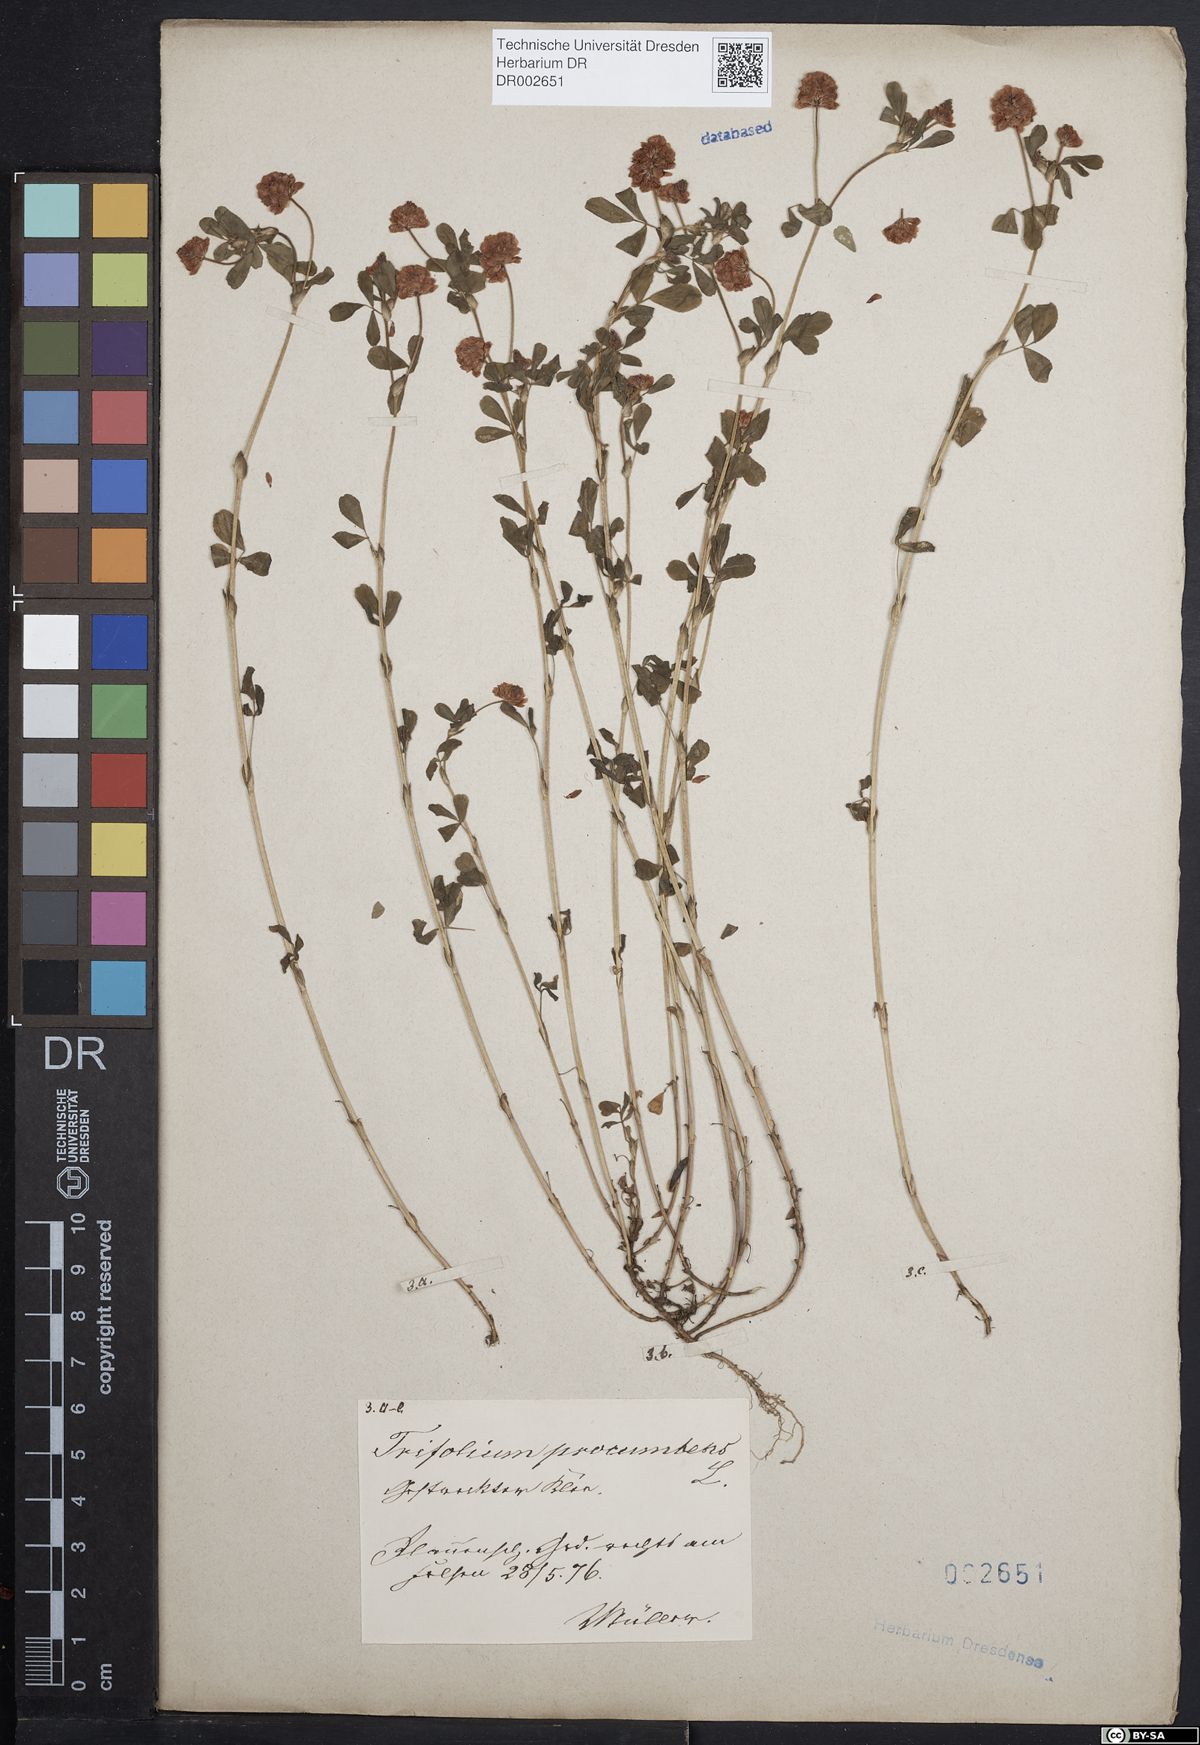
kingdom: Plantae
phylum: Tracheophyta
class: Magnoliopsida
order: Fabales
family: Fabaceae
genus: Trifolium
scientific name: Trifolium campestre
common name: Field clover
